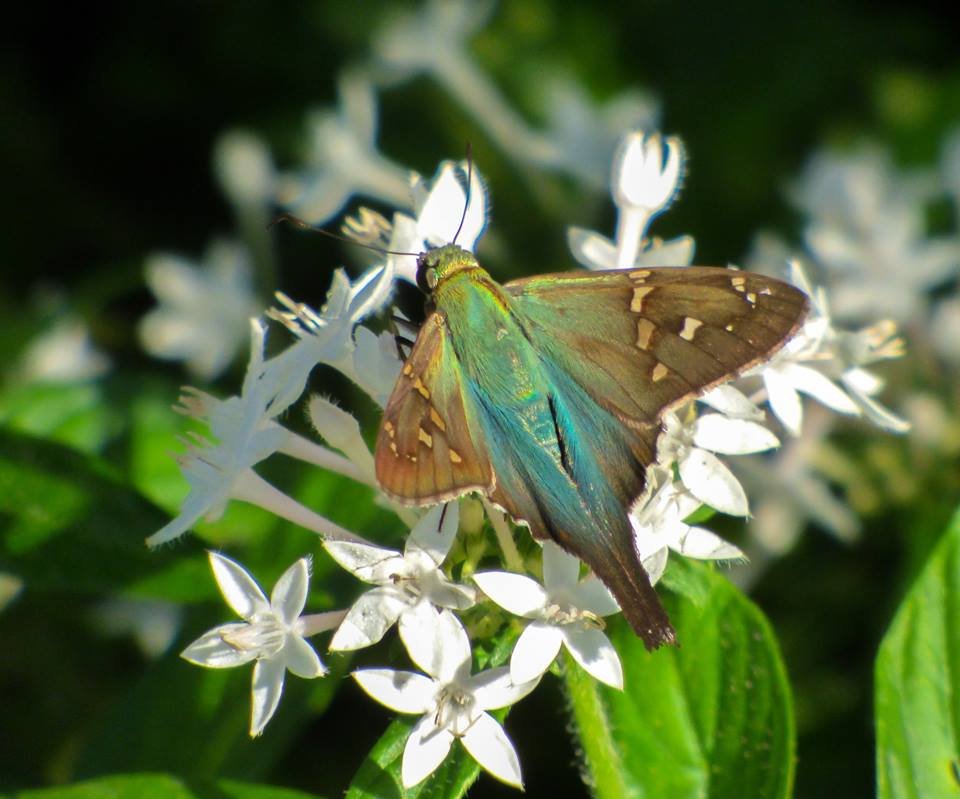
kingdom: Animalia
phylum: Arthropoda
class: Insecta
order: Lepidoptera
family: Hesperiidae
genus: Urbanus
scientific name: Urbanus proteus
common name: Long-tailed Skipper
